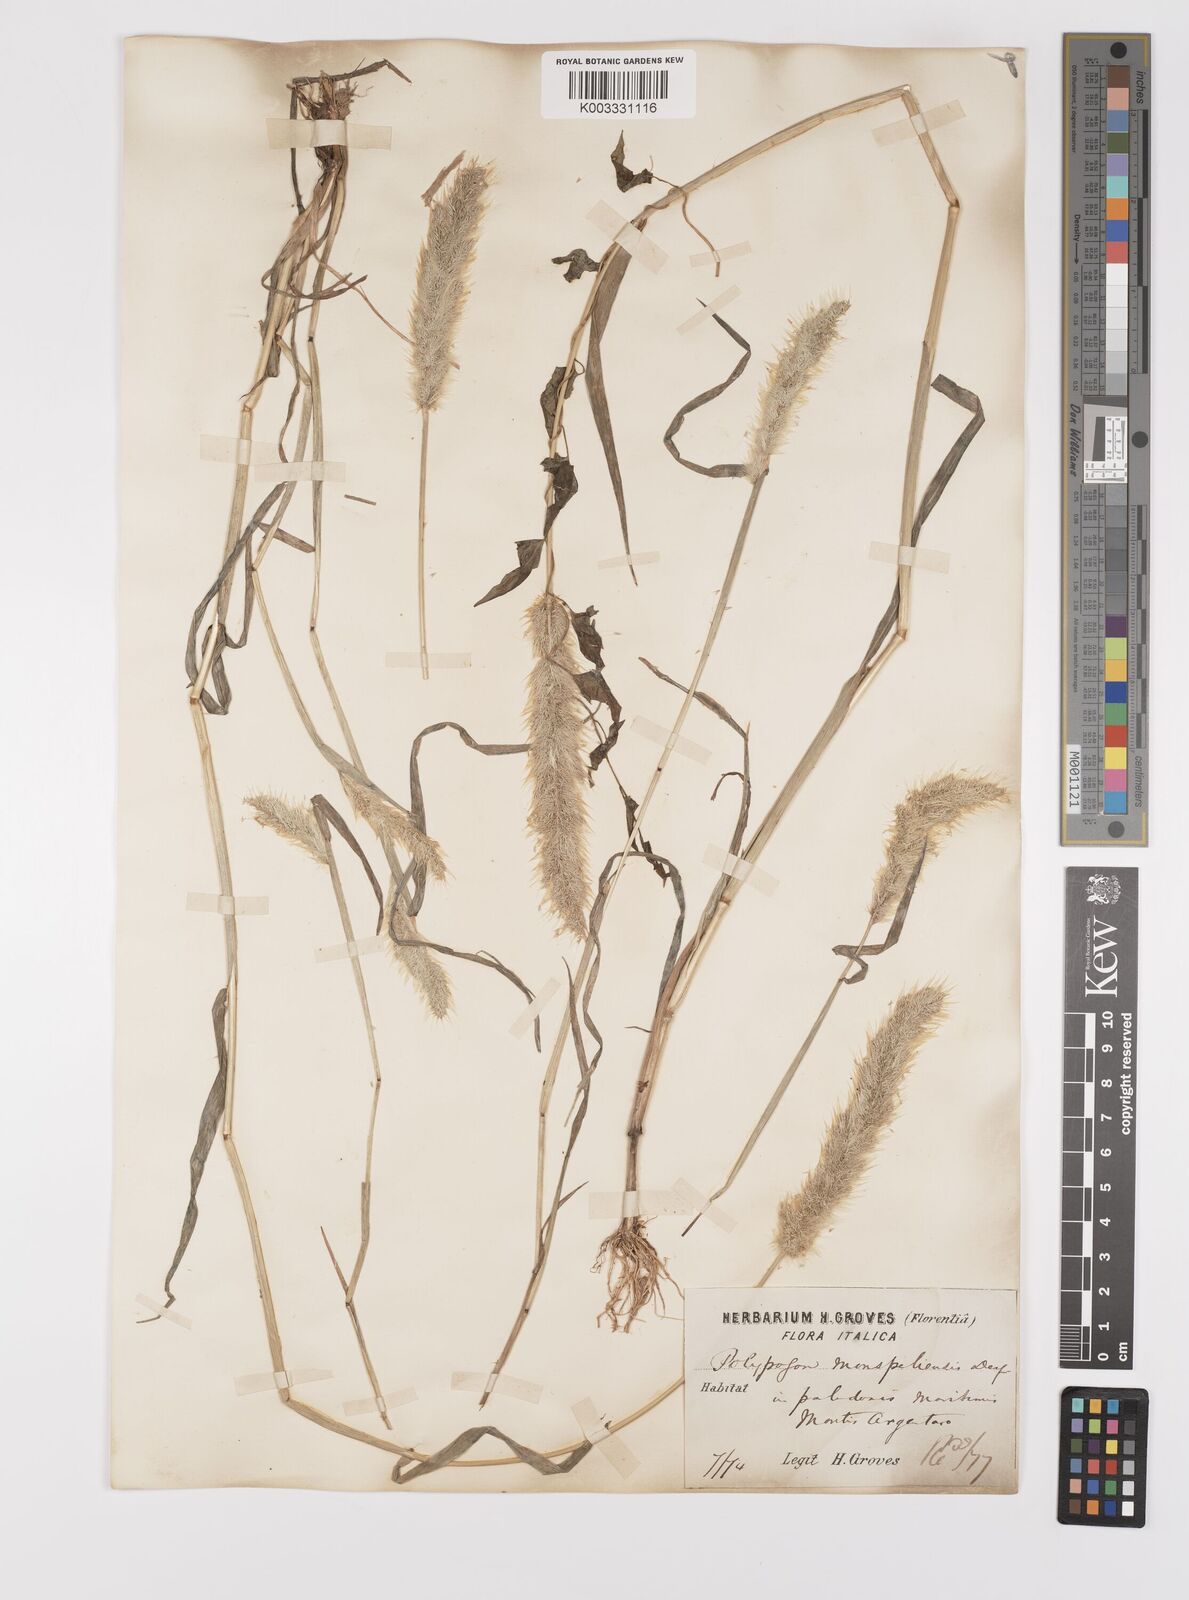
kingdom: Plantae
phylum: Tracheophyta
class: Liliopsida
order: Poales
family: Poaceae
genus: Polypogon
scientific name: Polypogon monspeliensis
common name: Annual rabbitsfoot grass
